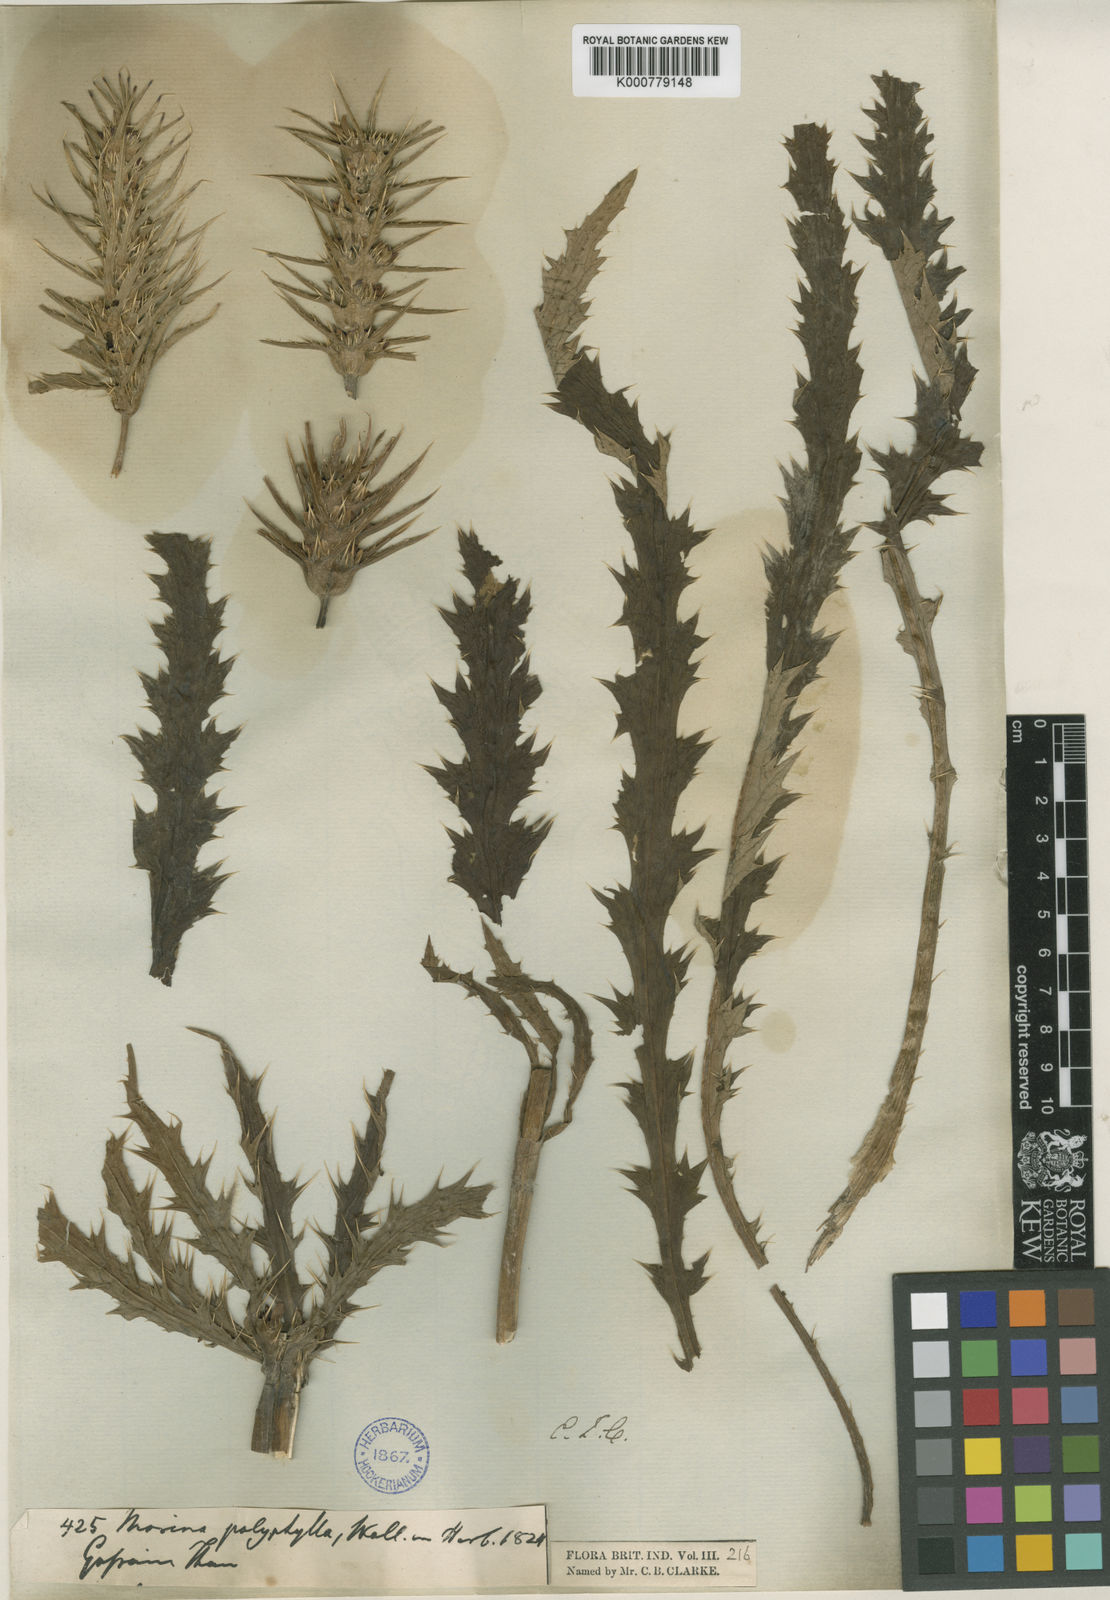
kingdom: Plantae
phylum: Tracheophyta
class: Magnoliopsida
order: Dipsacales
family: Caprifoliaceae
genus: Cryptothladia
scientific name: Cryptothladia polyphylla
